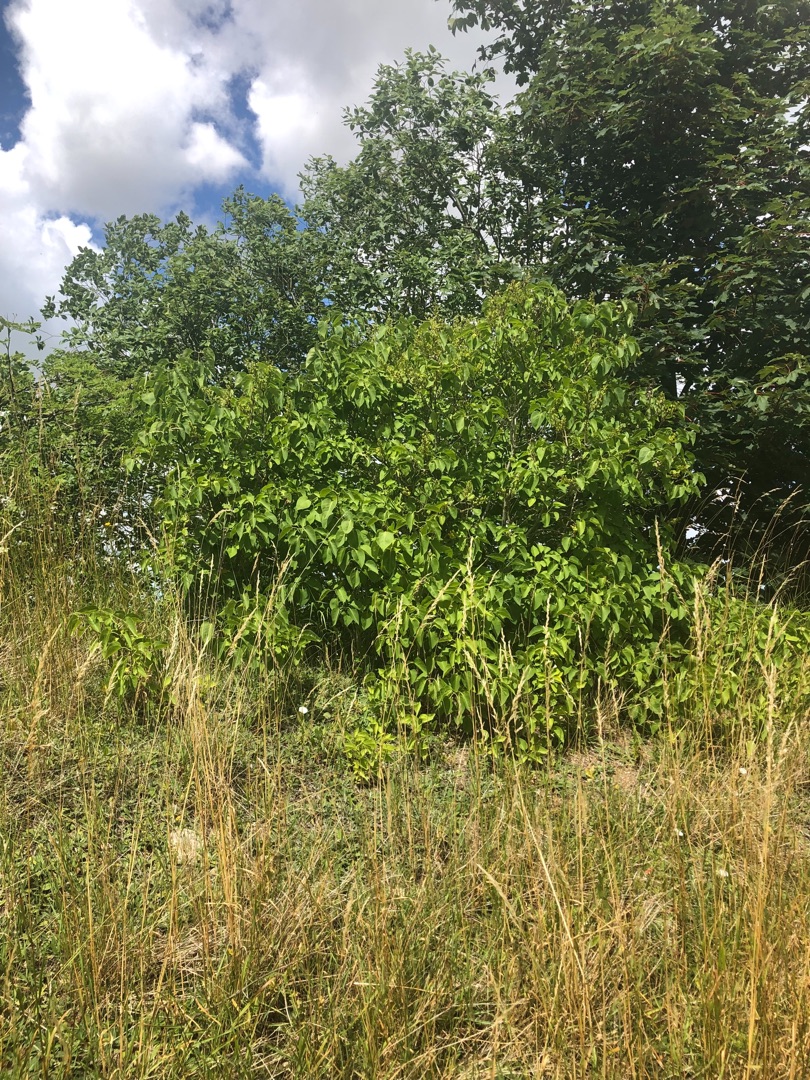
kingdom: Plantae
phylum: Tracheophyta
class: Magnoliopsida
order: Lamiales
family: Oleaceae
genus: Syringa
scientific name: Syringa vulgaris
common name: Syren
